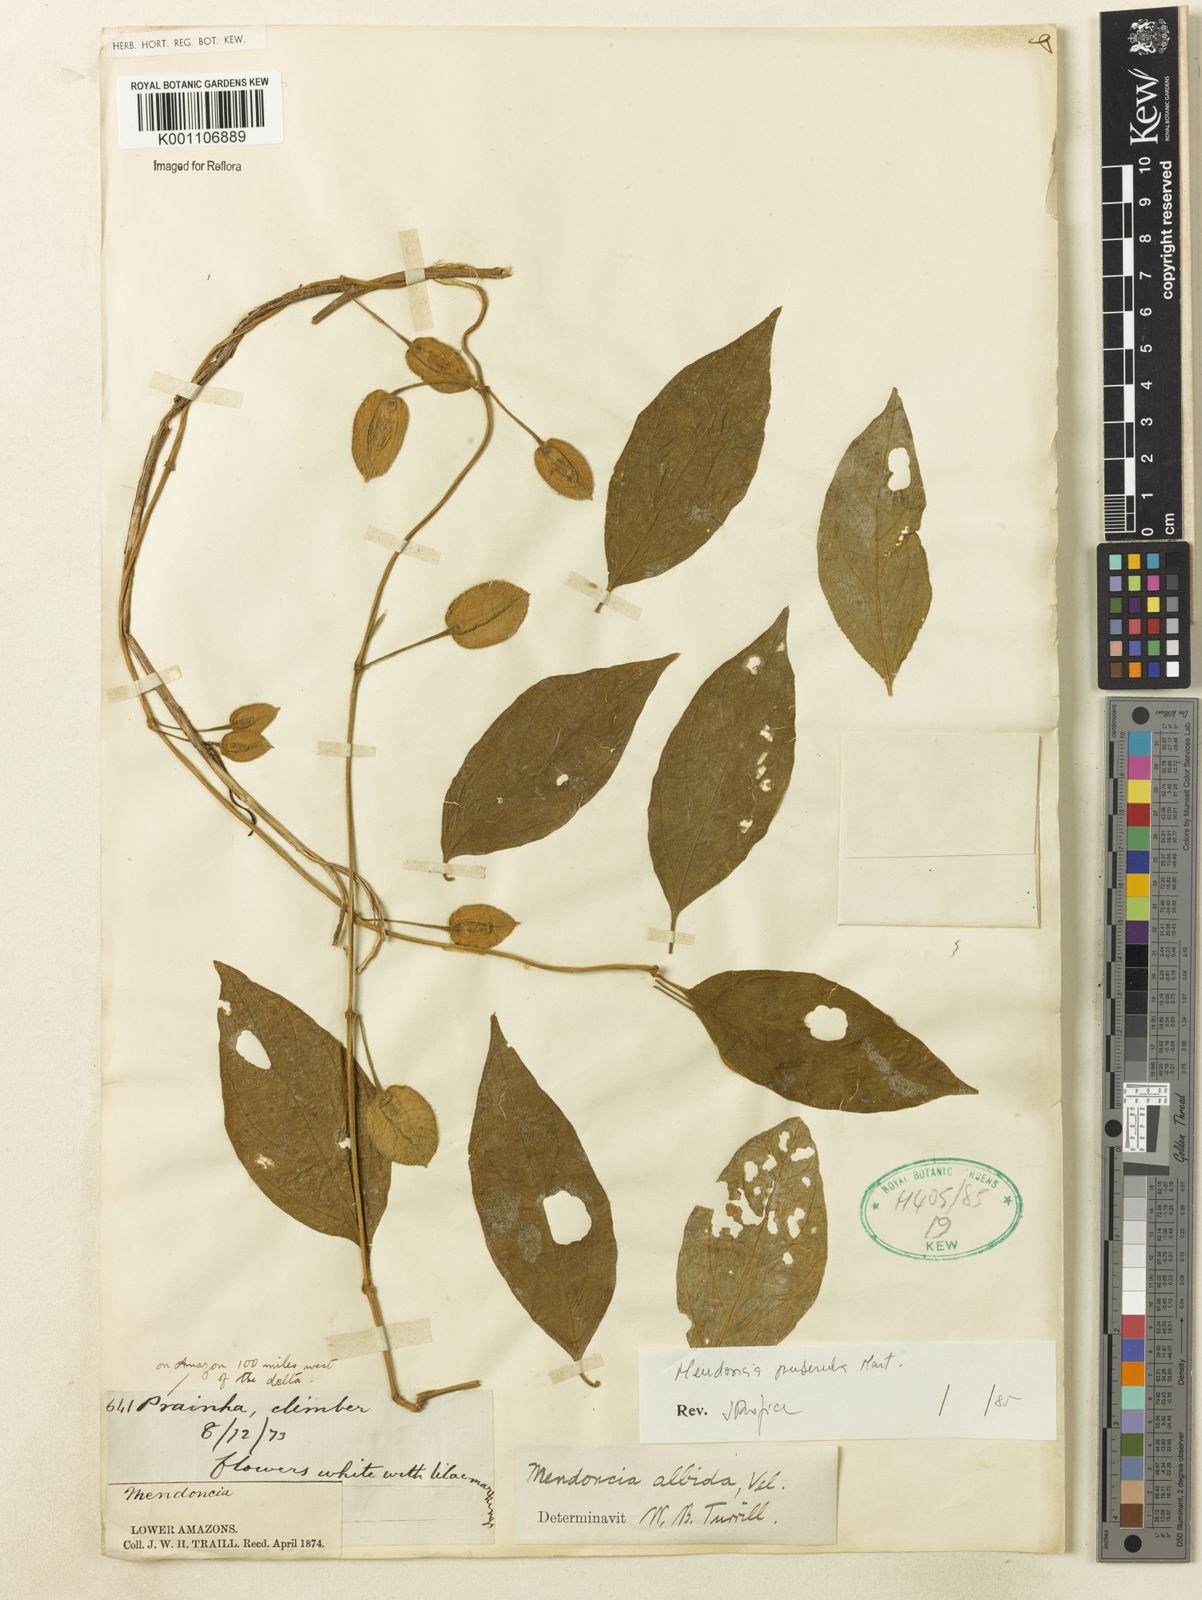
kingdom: Plantae
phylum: Tracheophyta
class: Magnoliopsida
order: Lamiales
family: Acanthaceae
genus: Mendoncia
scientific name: Mendoncia puberula
